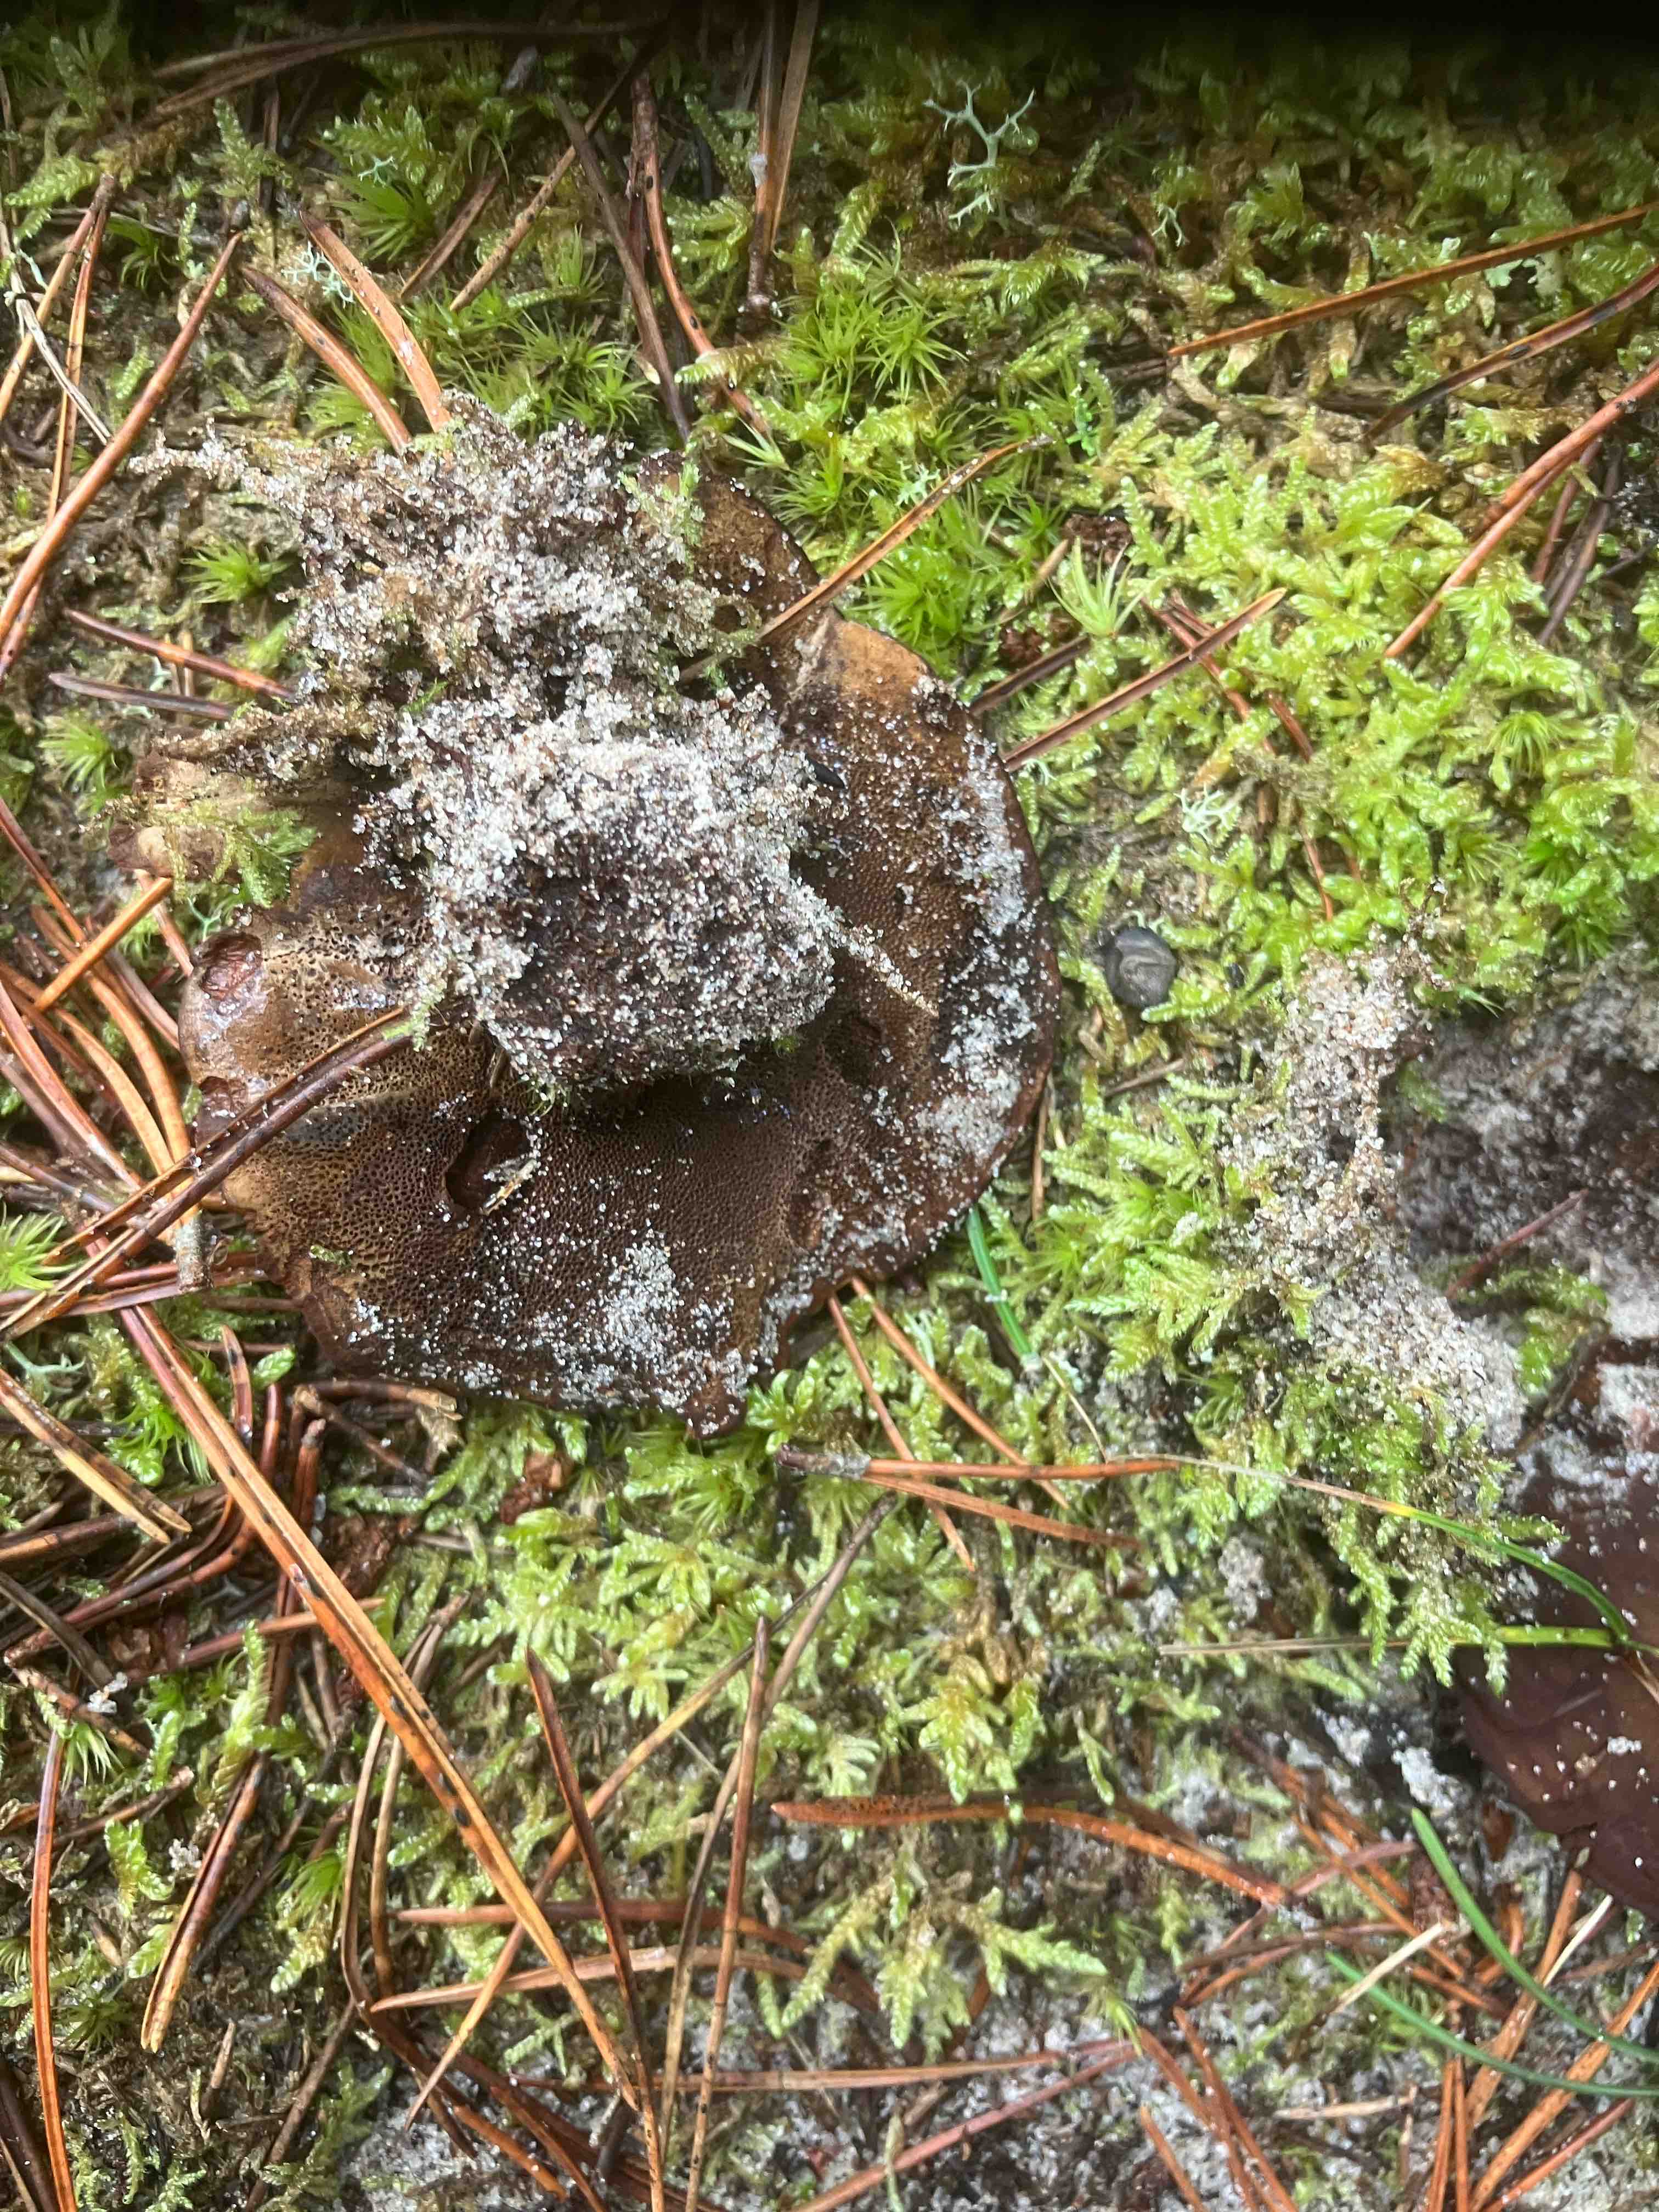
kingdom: Fungi
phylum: Basidiomycota
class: Agaricomycetes
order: Hymenochaetales
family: Hymenochaetaceae
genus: Coltricia
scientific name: Coltricia perennis
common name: almindelig sandporesvamp
